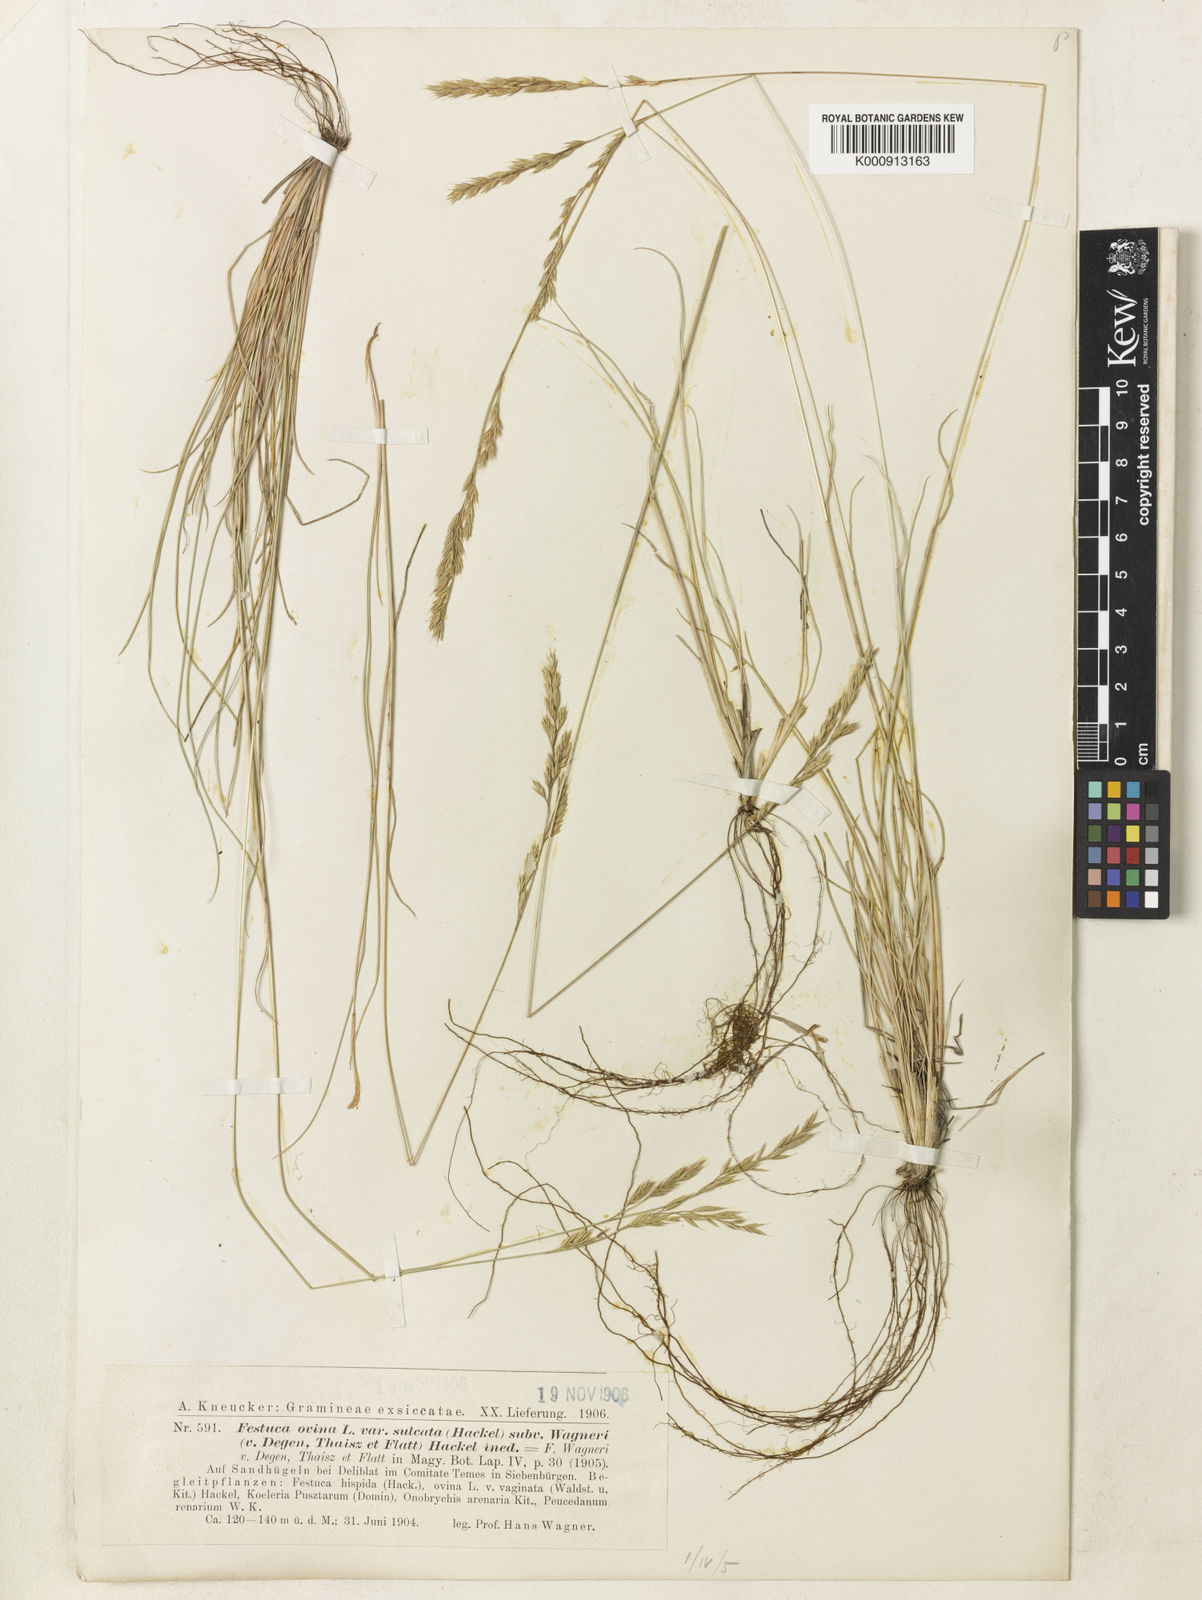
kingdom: Plantae
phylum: Tracheophyta
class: Liliopsida
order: Poales
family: Poaceae
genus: Festuca
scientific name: Festuca wagneri
